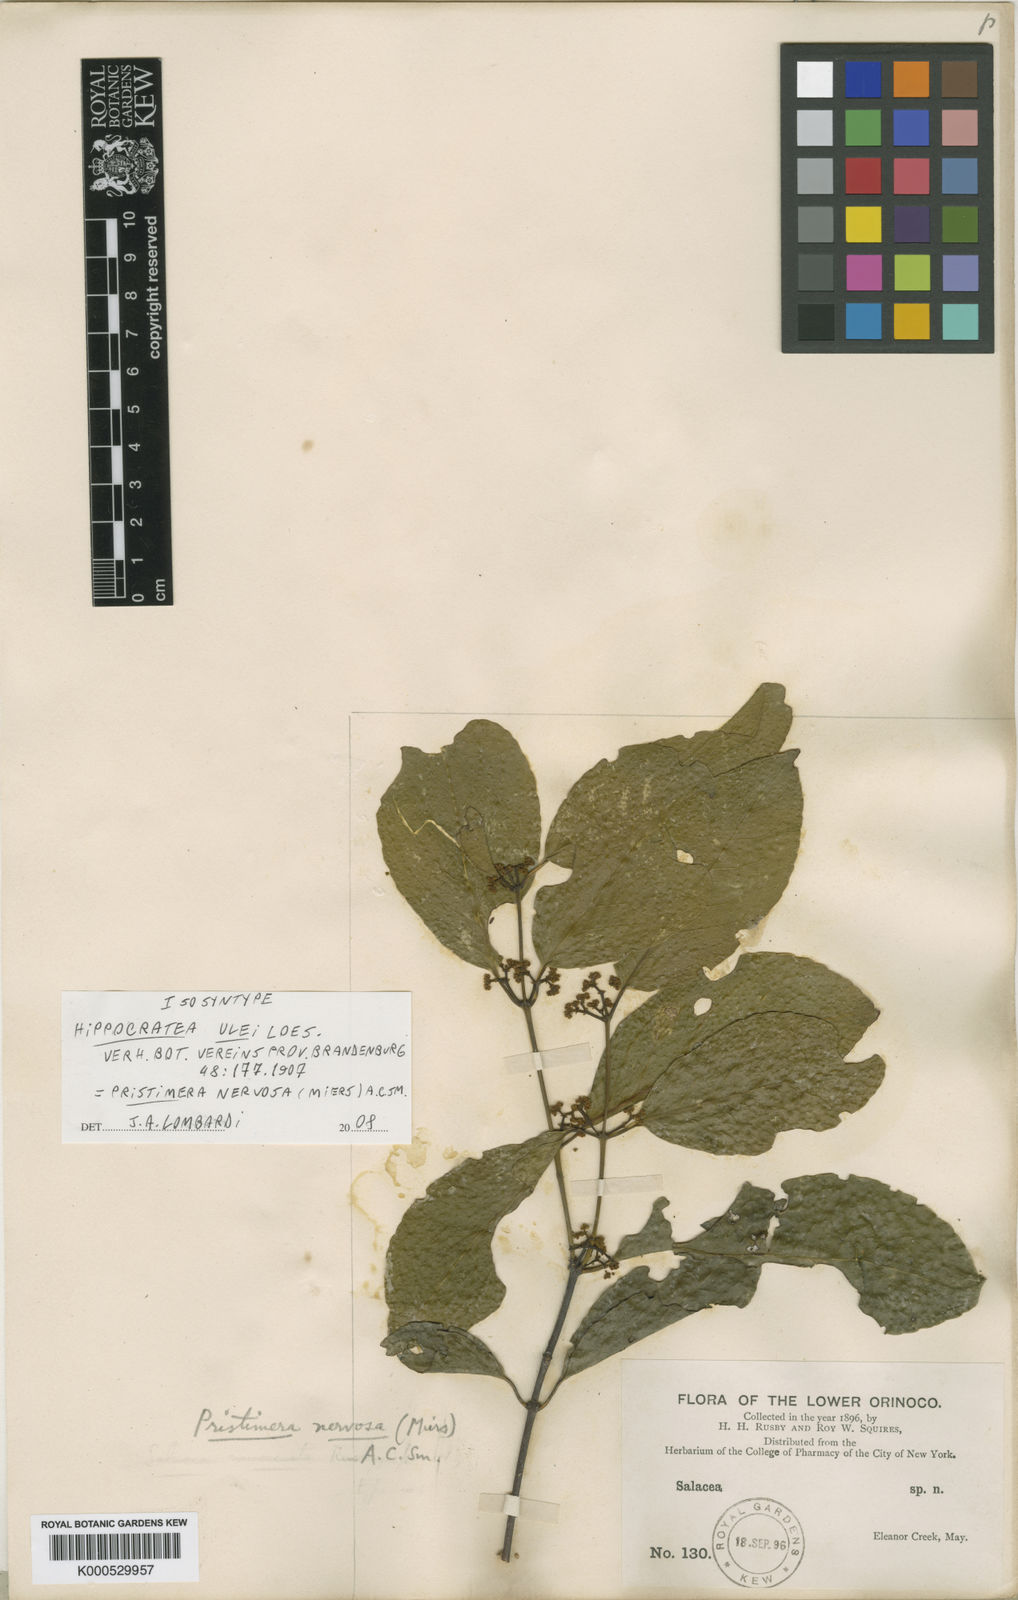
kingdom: Plantae
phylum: Tracheophyta
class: Magnoliopsida
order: Celastrales
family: Celastraceae
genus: Pristimera
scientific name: Pristimera nervosa
